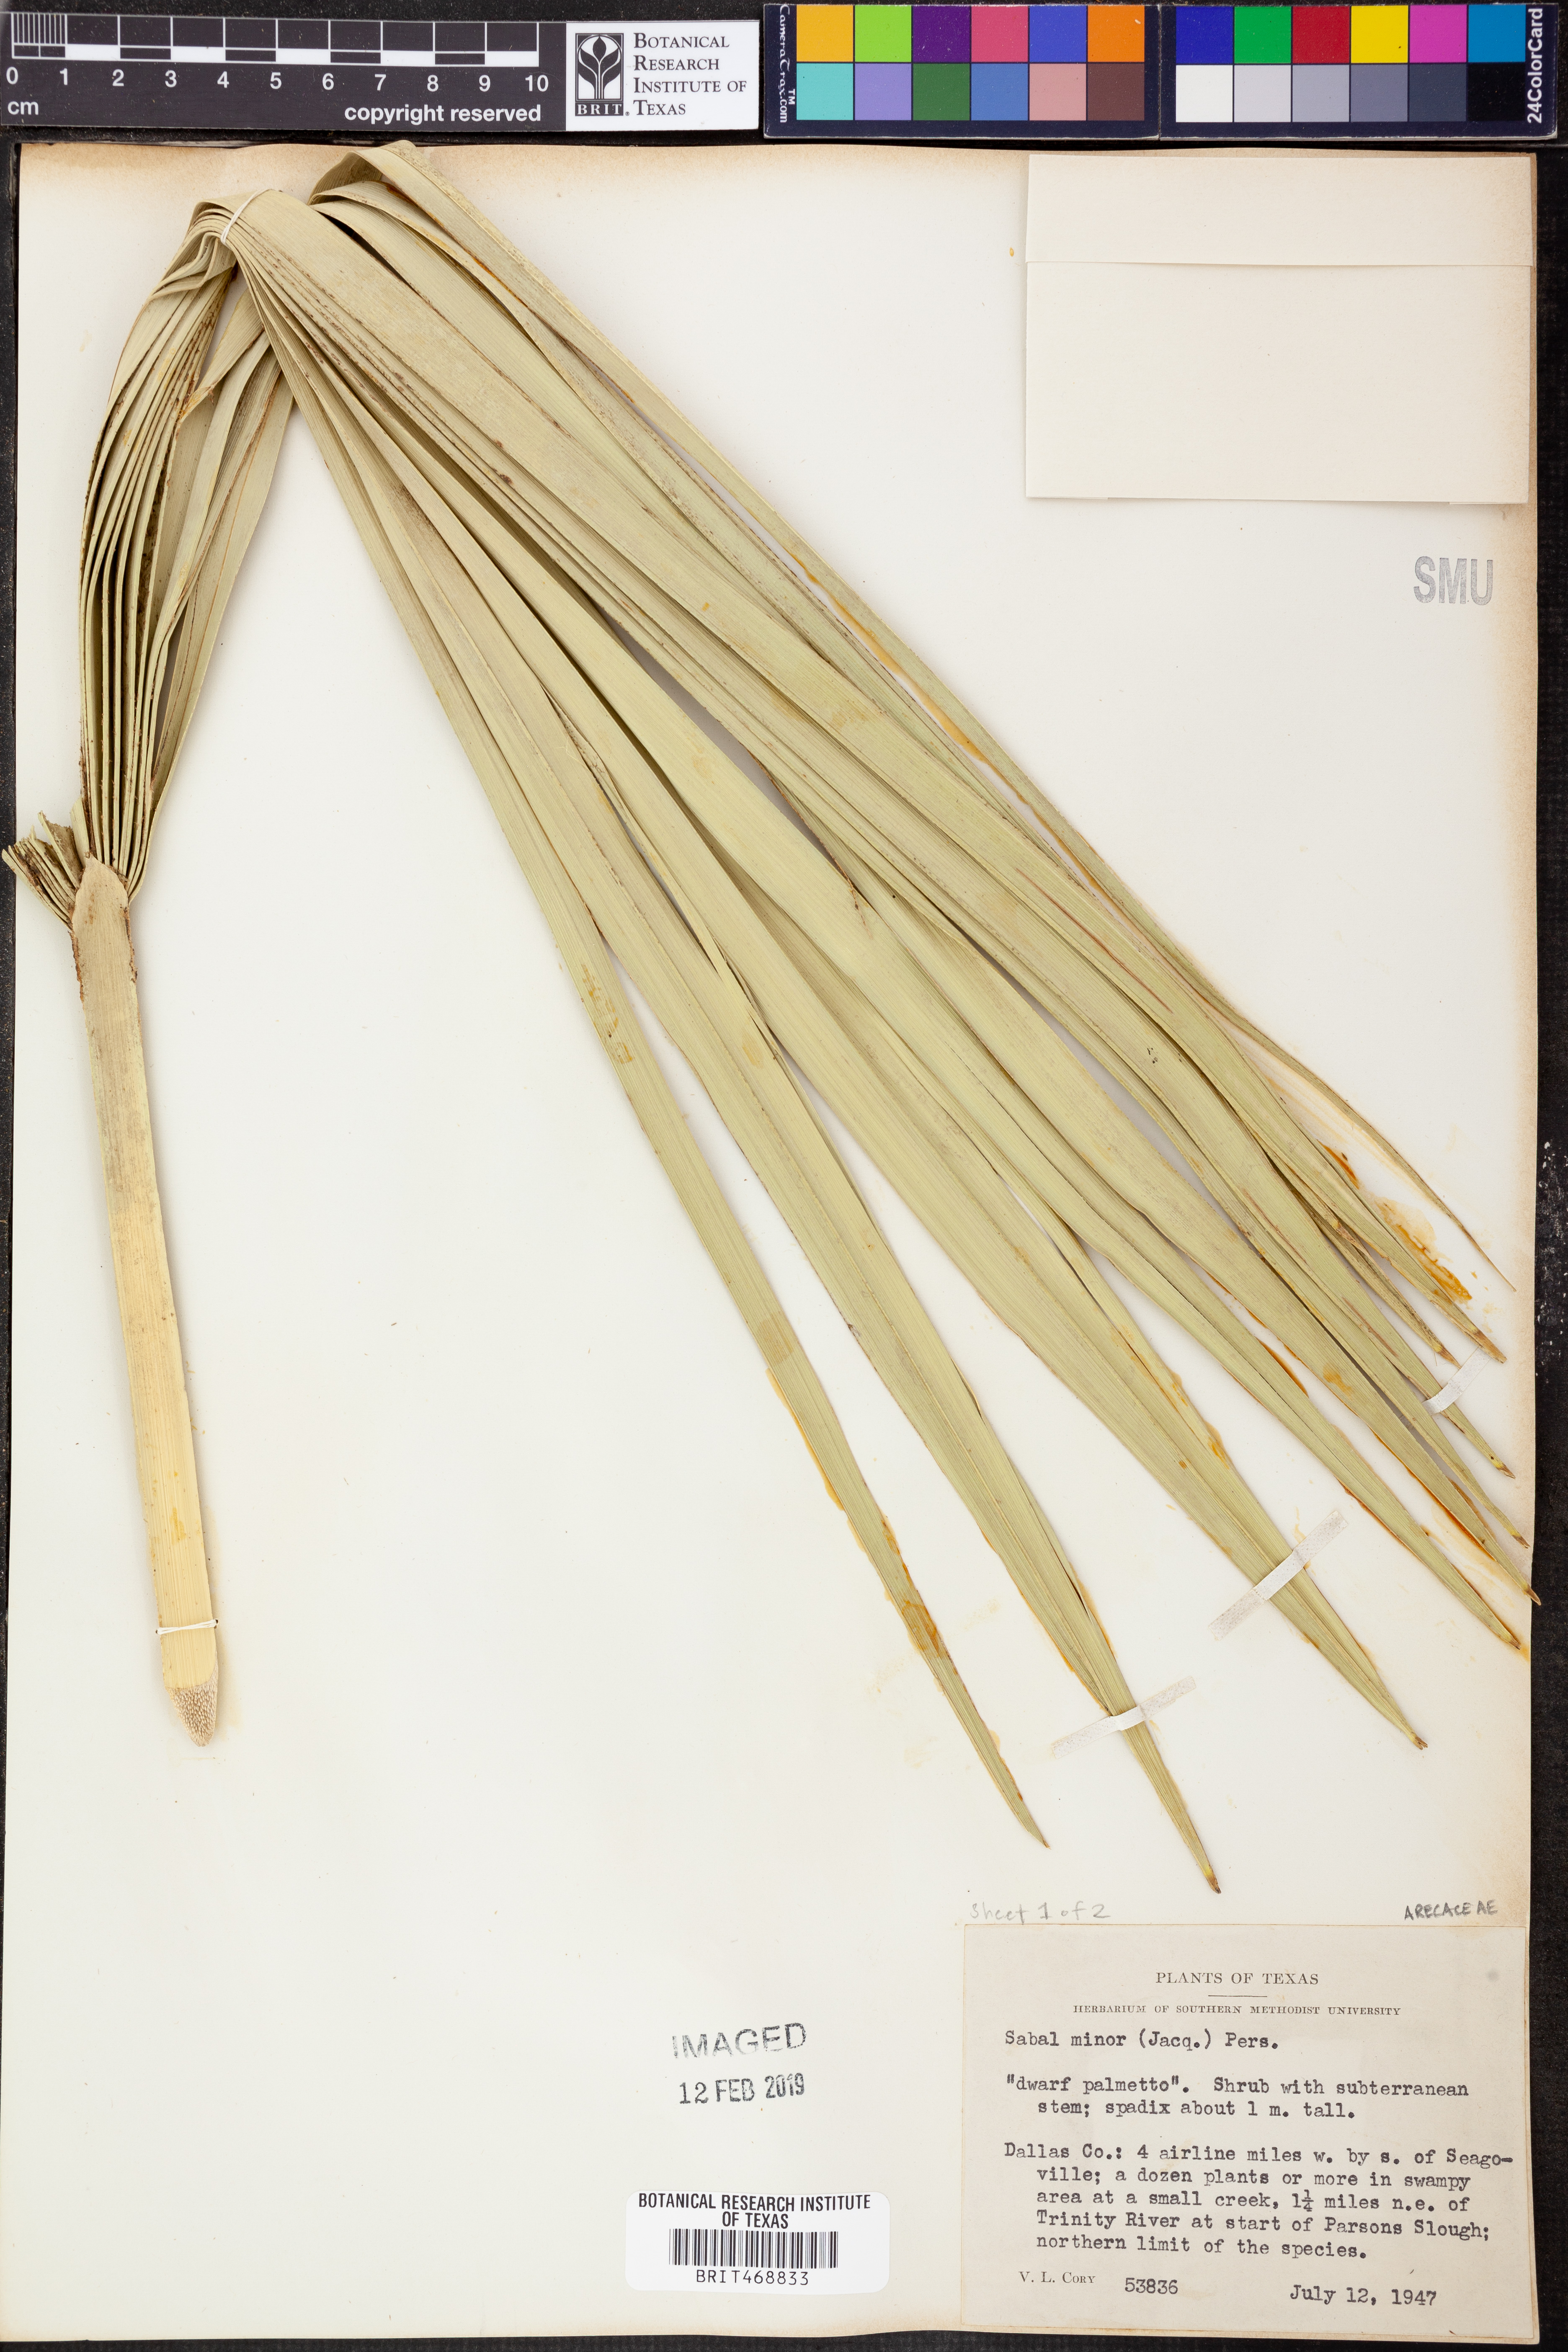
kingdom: Plantae
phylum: Tracheophyta
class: Liliopsida
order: Arecales
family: Arecaceae
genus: Sabal
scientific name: Sabal minor
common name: Dwarf palmetto
